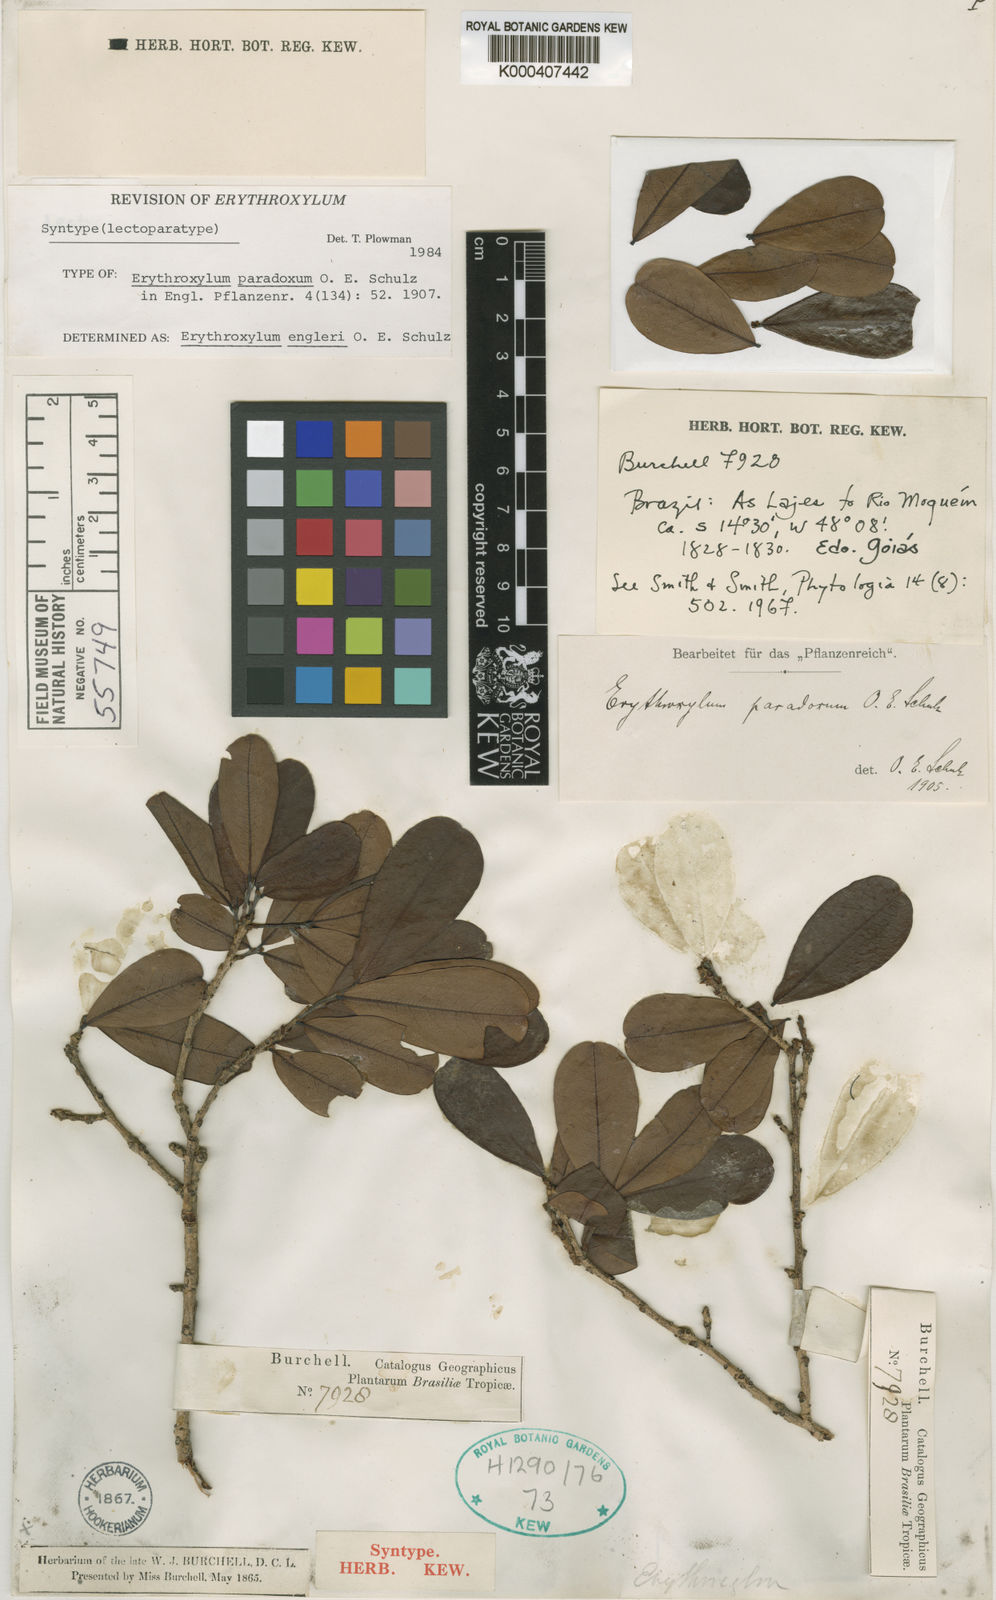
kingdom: Plantae
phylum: Tracheophyta
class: Magnoliopsida
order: Malpighiales
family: Erythroxylaceae
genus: Erythroxylum
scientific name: Erythroxylum engleri
